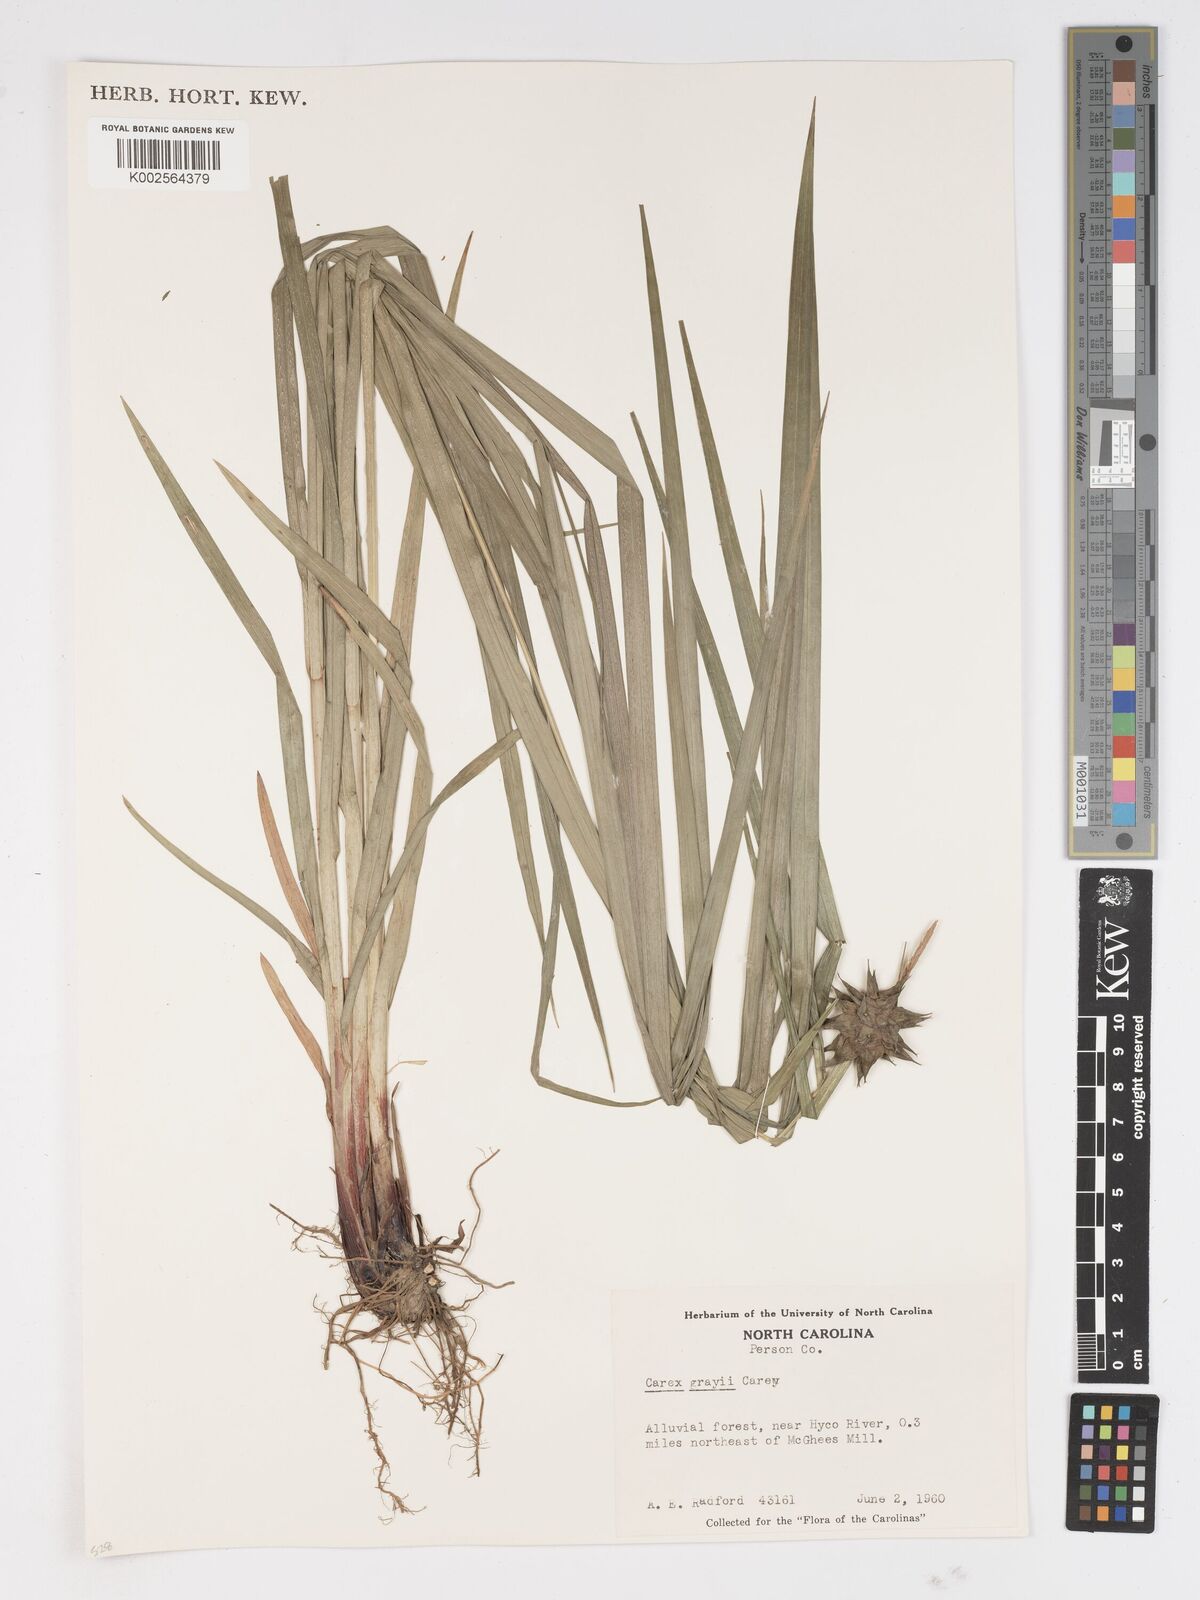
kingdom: Plantae
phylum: Tracheophyta
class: Liliopsida
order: Poales
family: Cyperaceae
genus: Carex
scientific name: Carex grayi
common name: Asa gray's sedge
